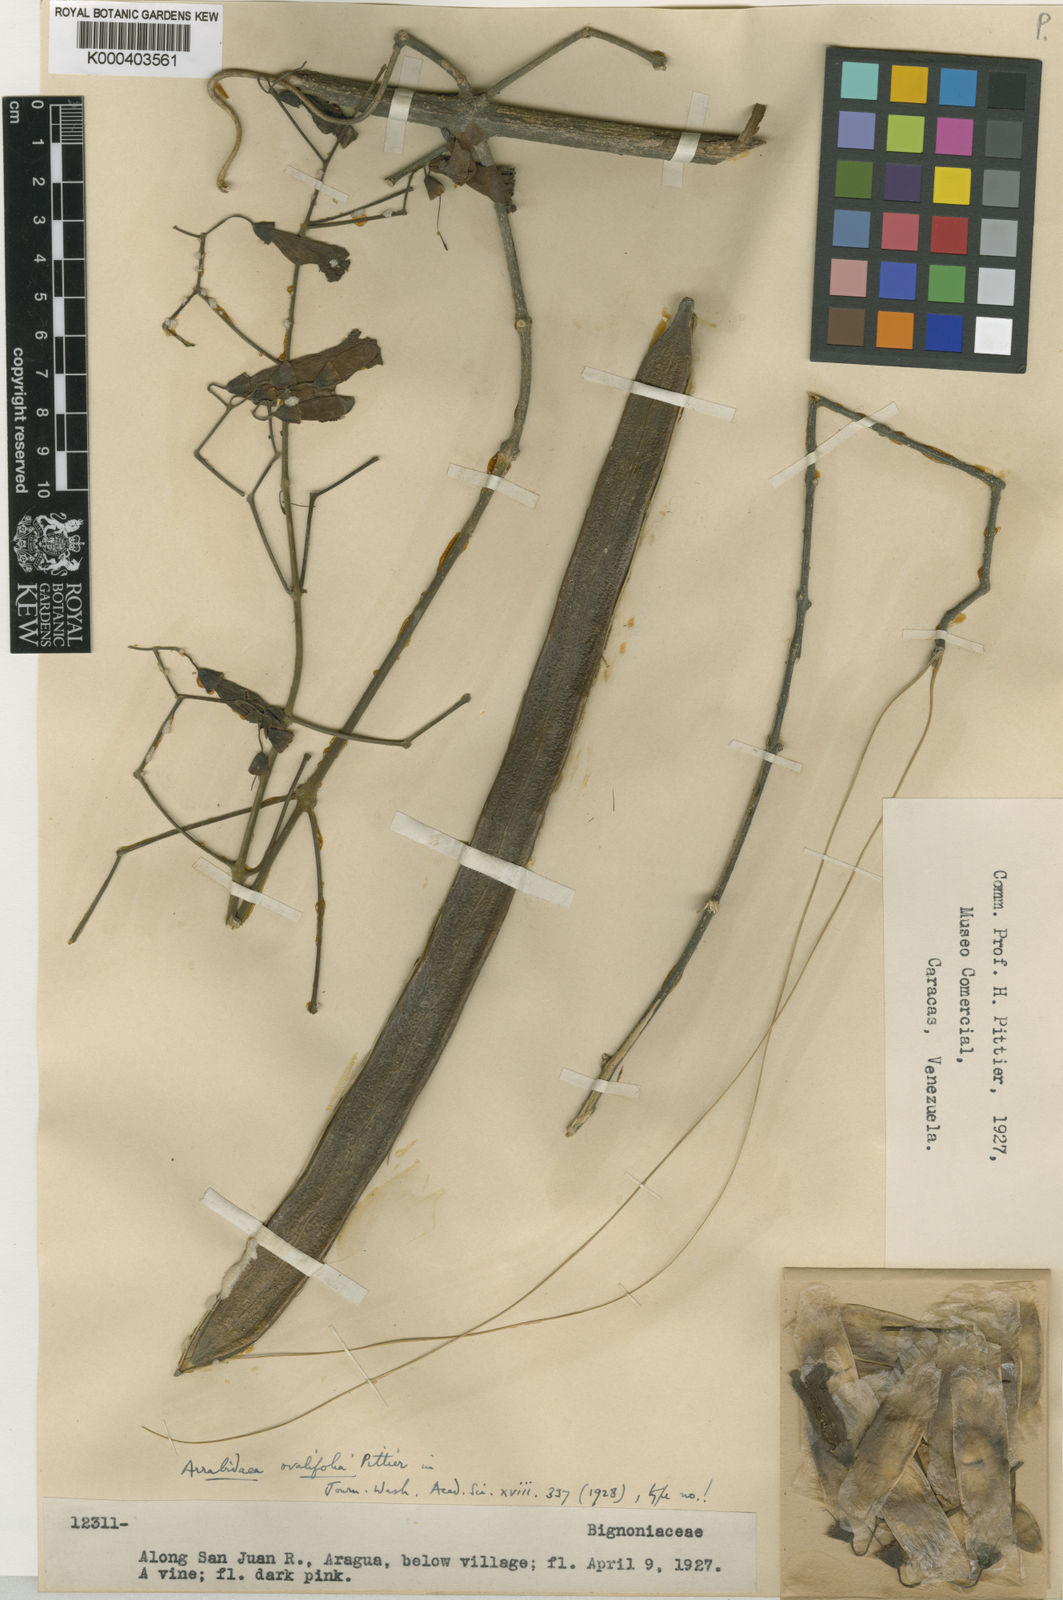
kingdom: Plantae
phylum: Tracheophyta
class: Magnoliopsida
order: Lamiales
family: Bignoniaceae
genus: Tanaecium
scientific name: Tanaecium
